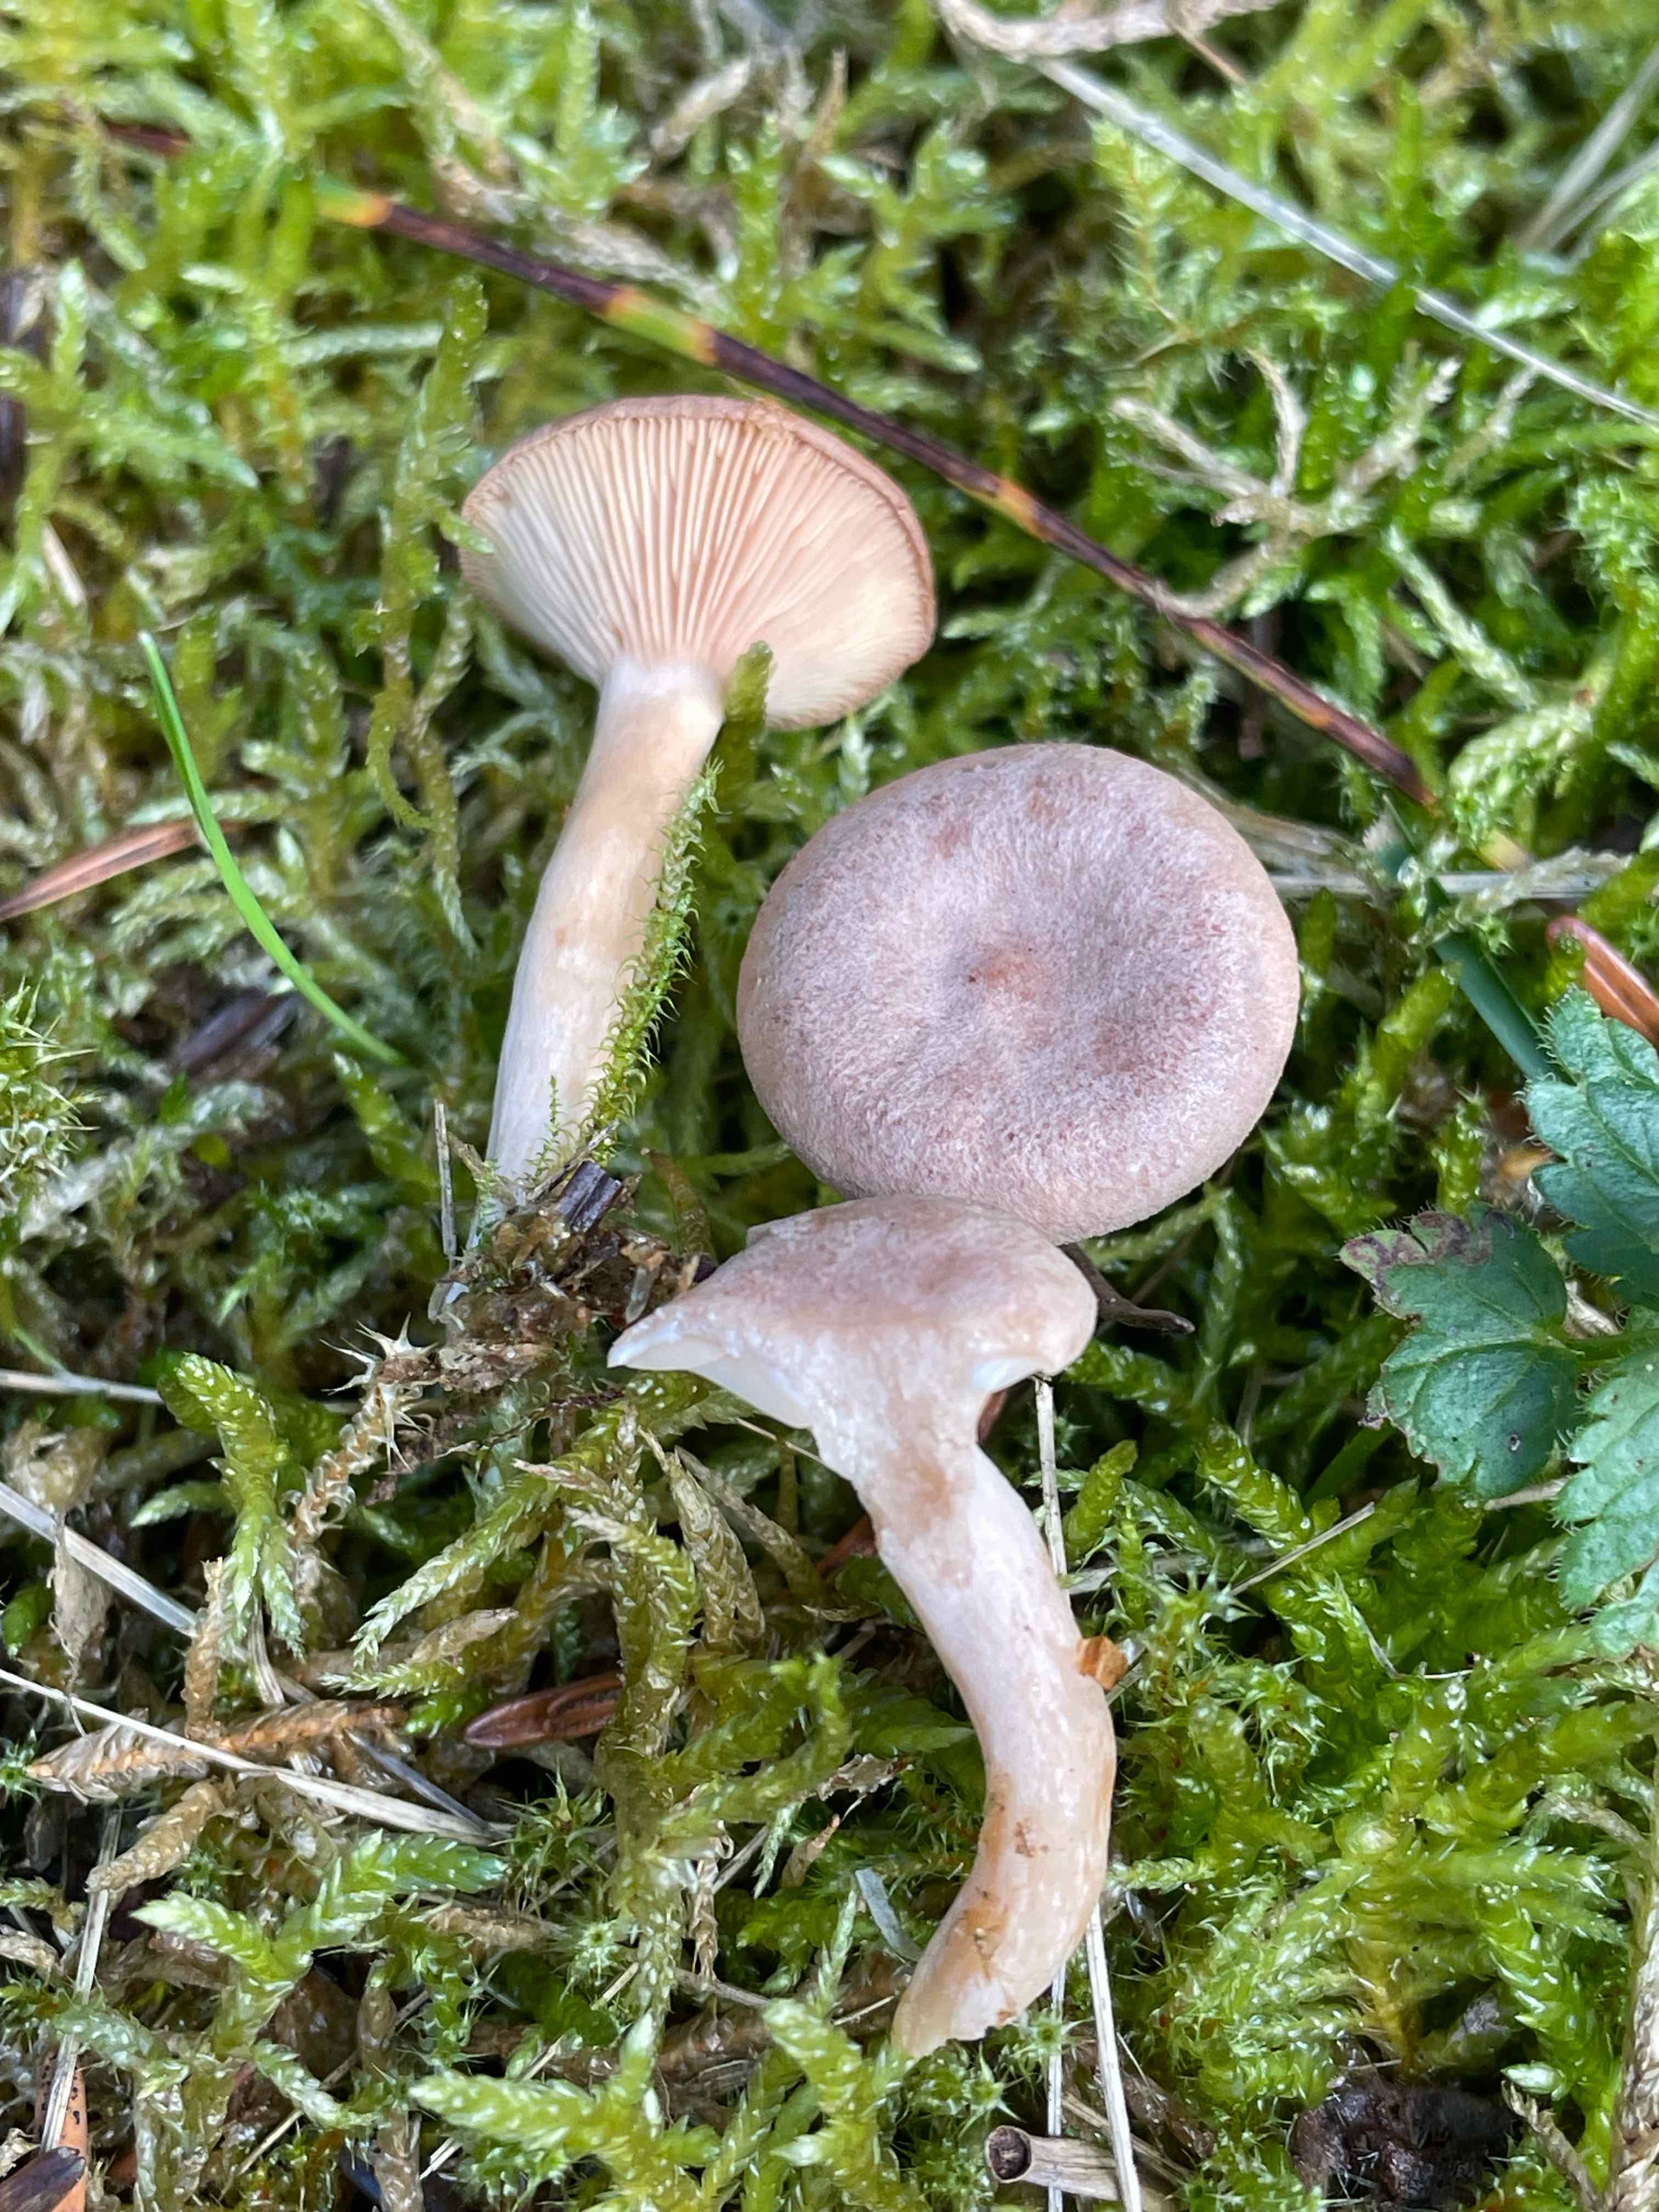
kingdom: Fungi
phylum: Basidiomycota
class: Agaricomycetes
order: Russulales
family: Russulaceae
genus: Lactarius
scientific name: Lactarius glyciosmus
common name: kokos-mælkehat
